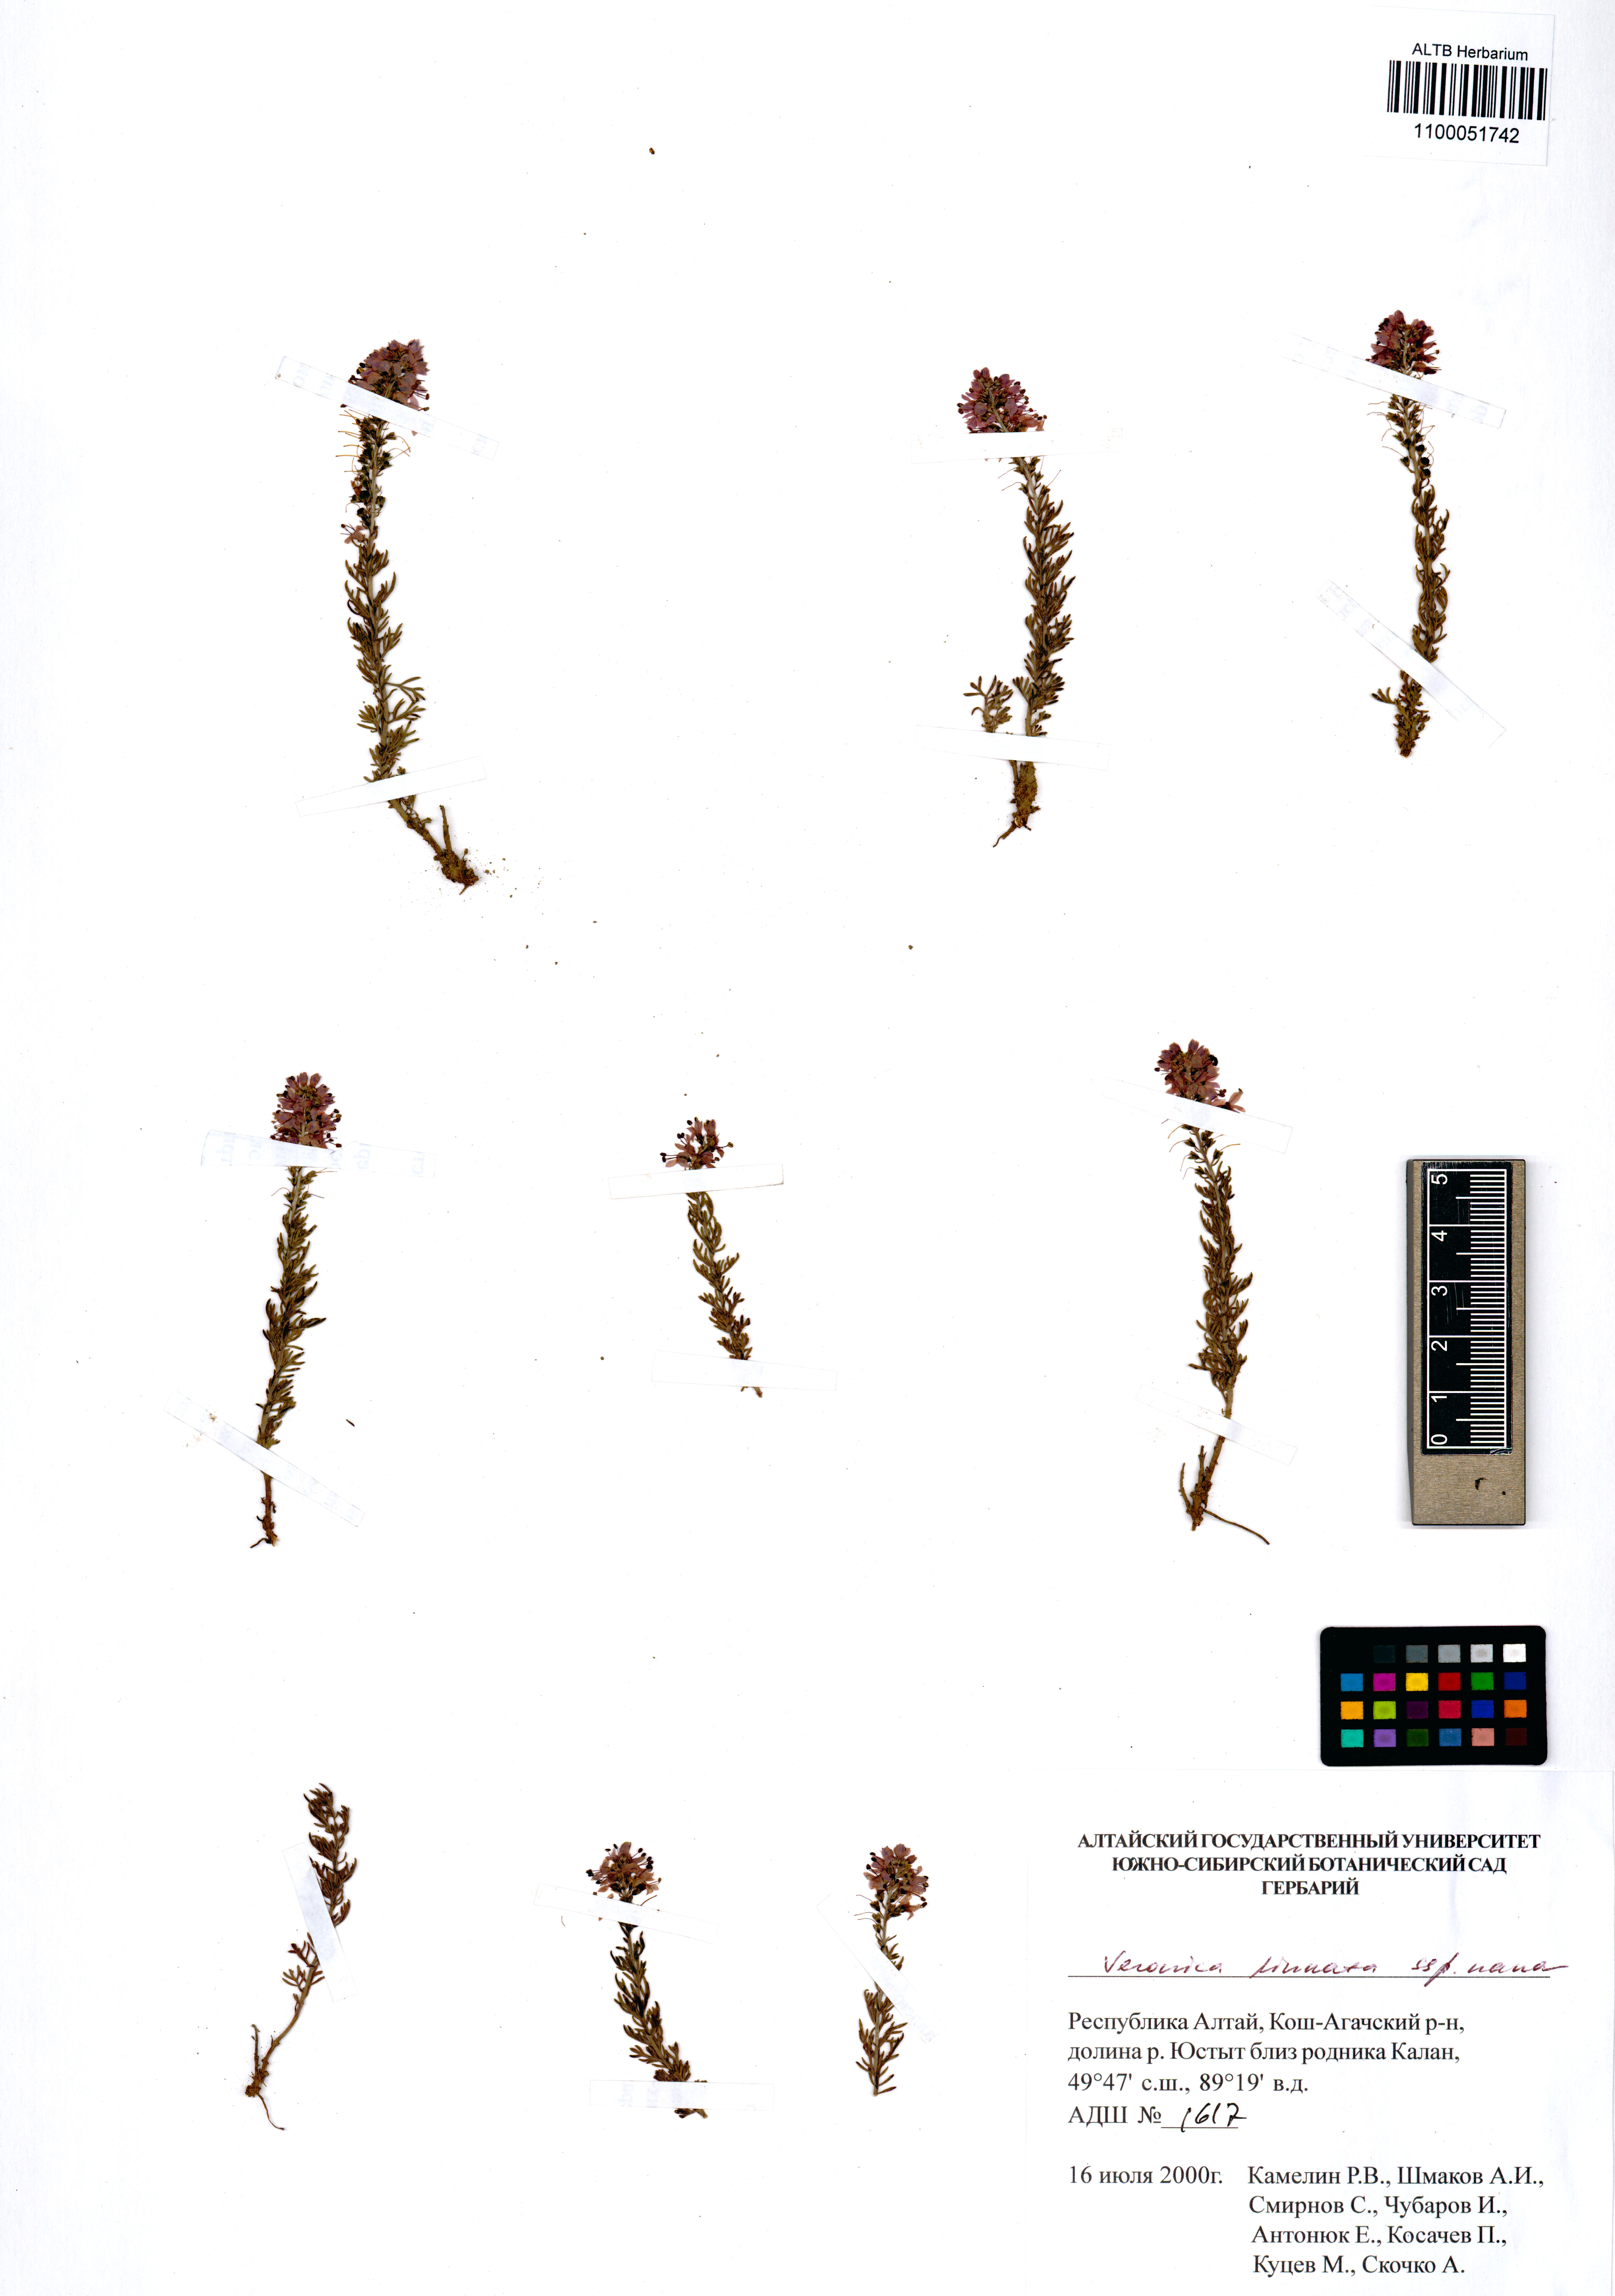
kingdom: Plantae
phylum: Tracheophyta
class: Magnoliopsida
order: Lamiales
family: Plantaginaceae
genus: Veronica
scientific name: Veronica pinnata
